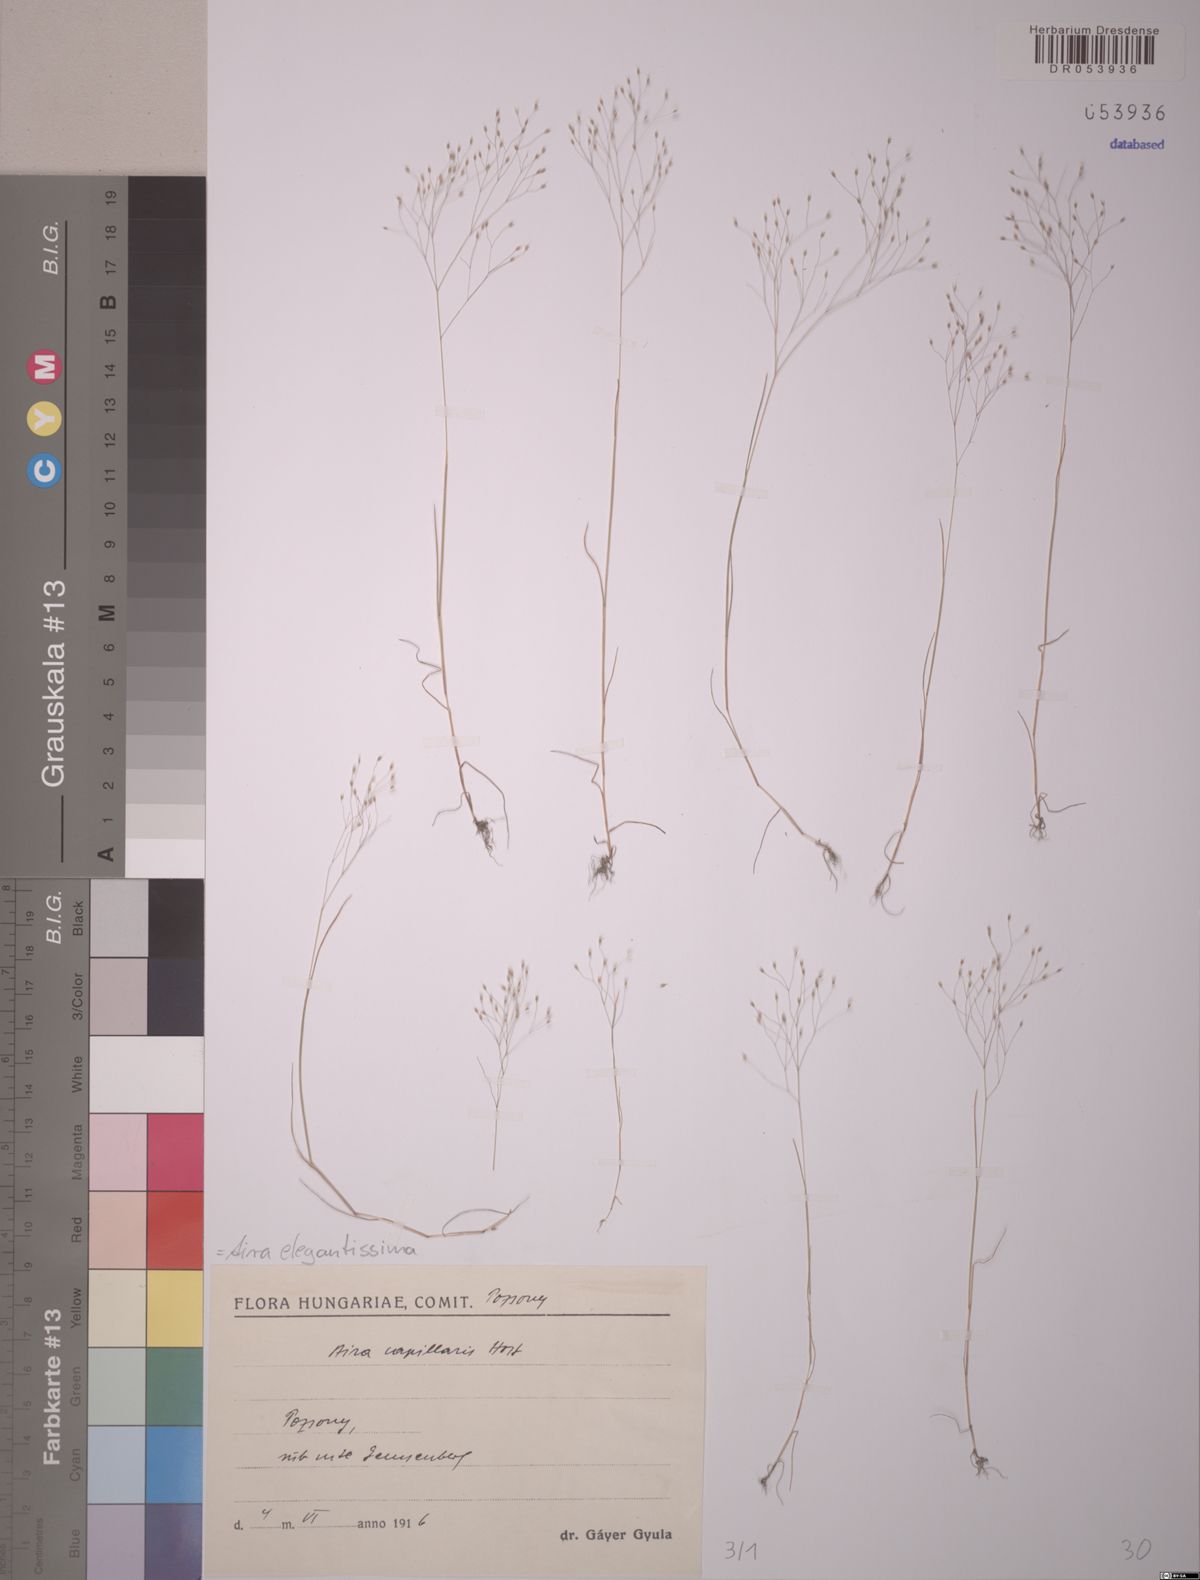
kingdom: Plantae
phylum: Tracheophyta
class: Liliopsida
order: Poales
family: Poaceae
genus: Aira
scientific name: Aira elegans
